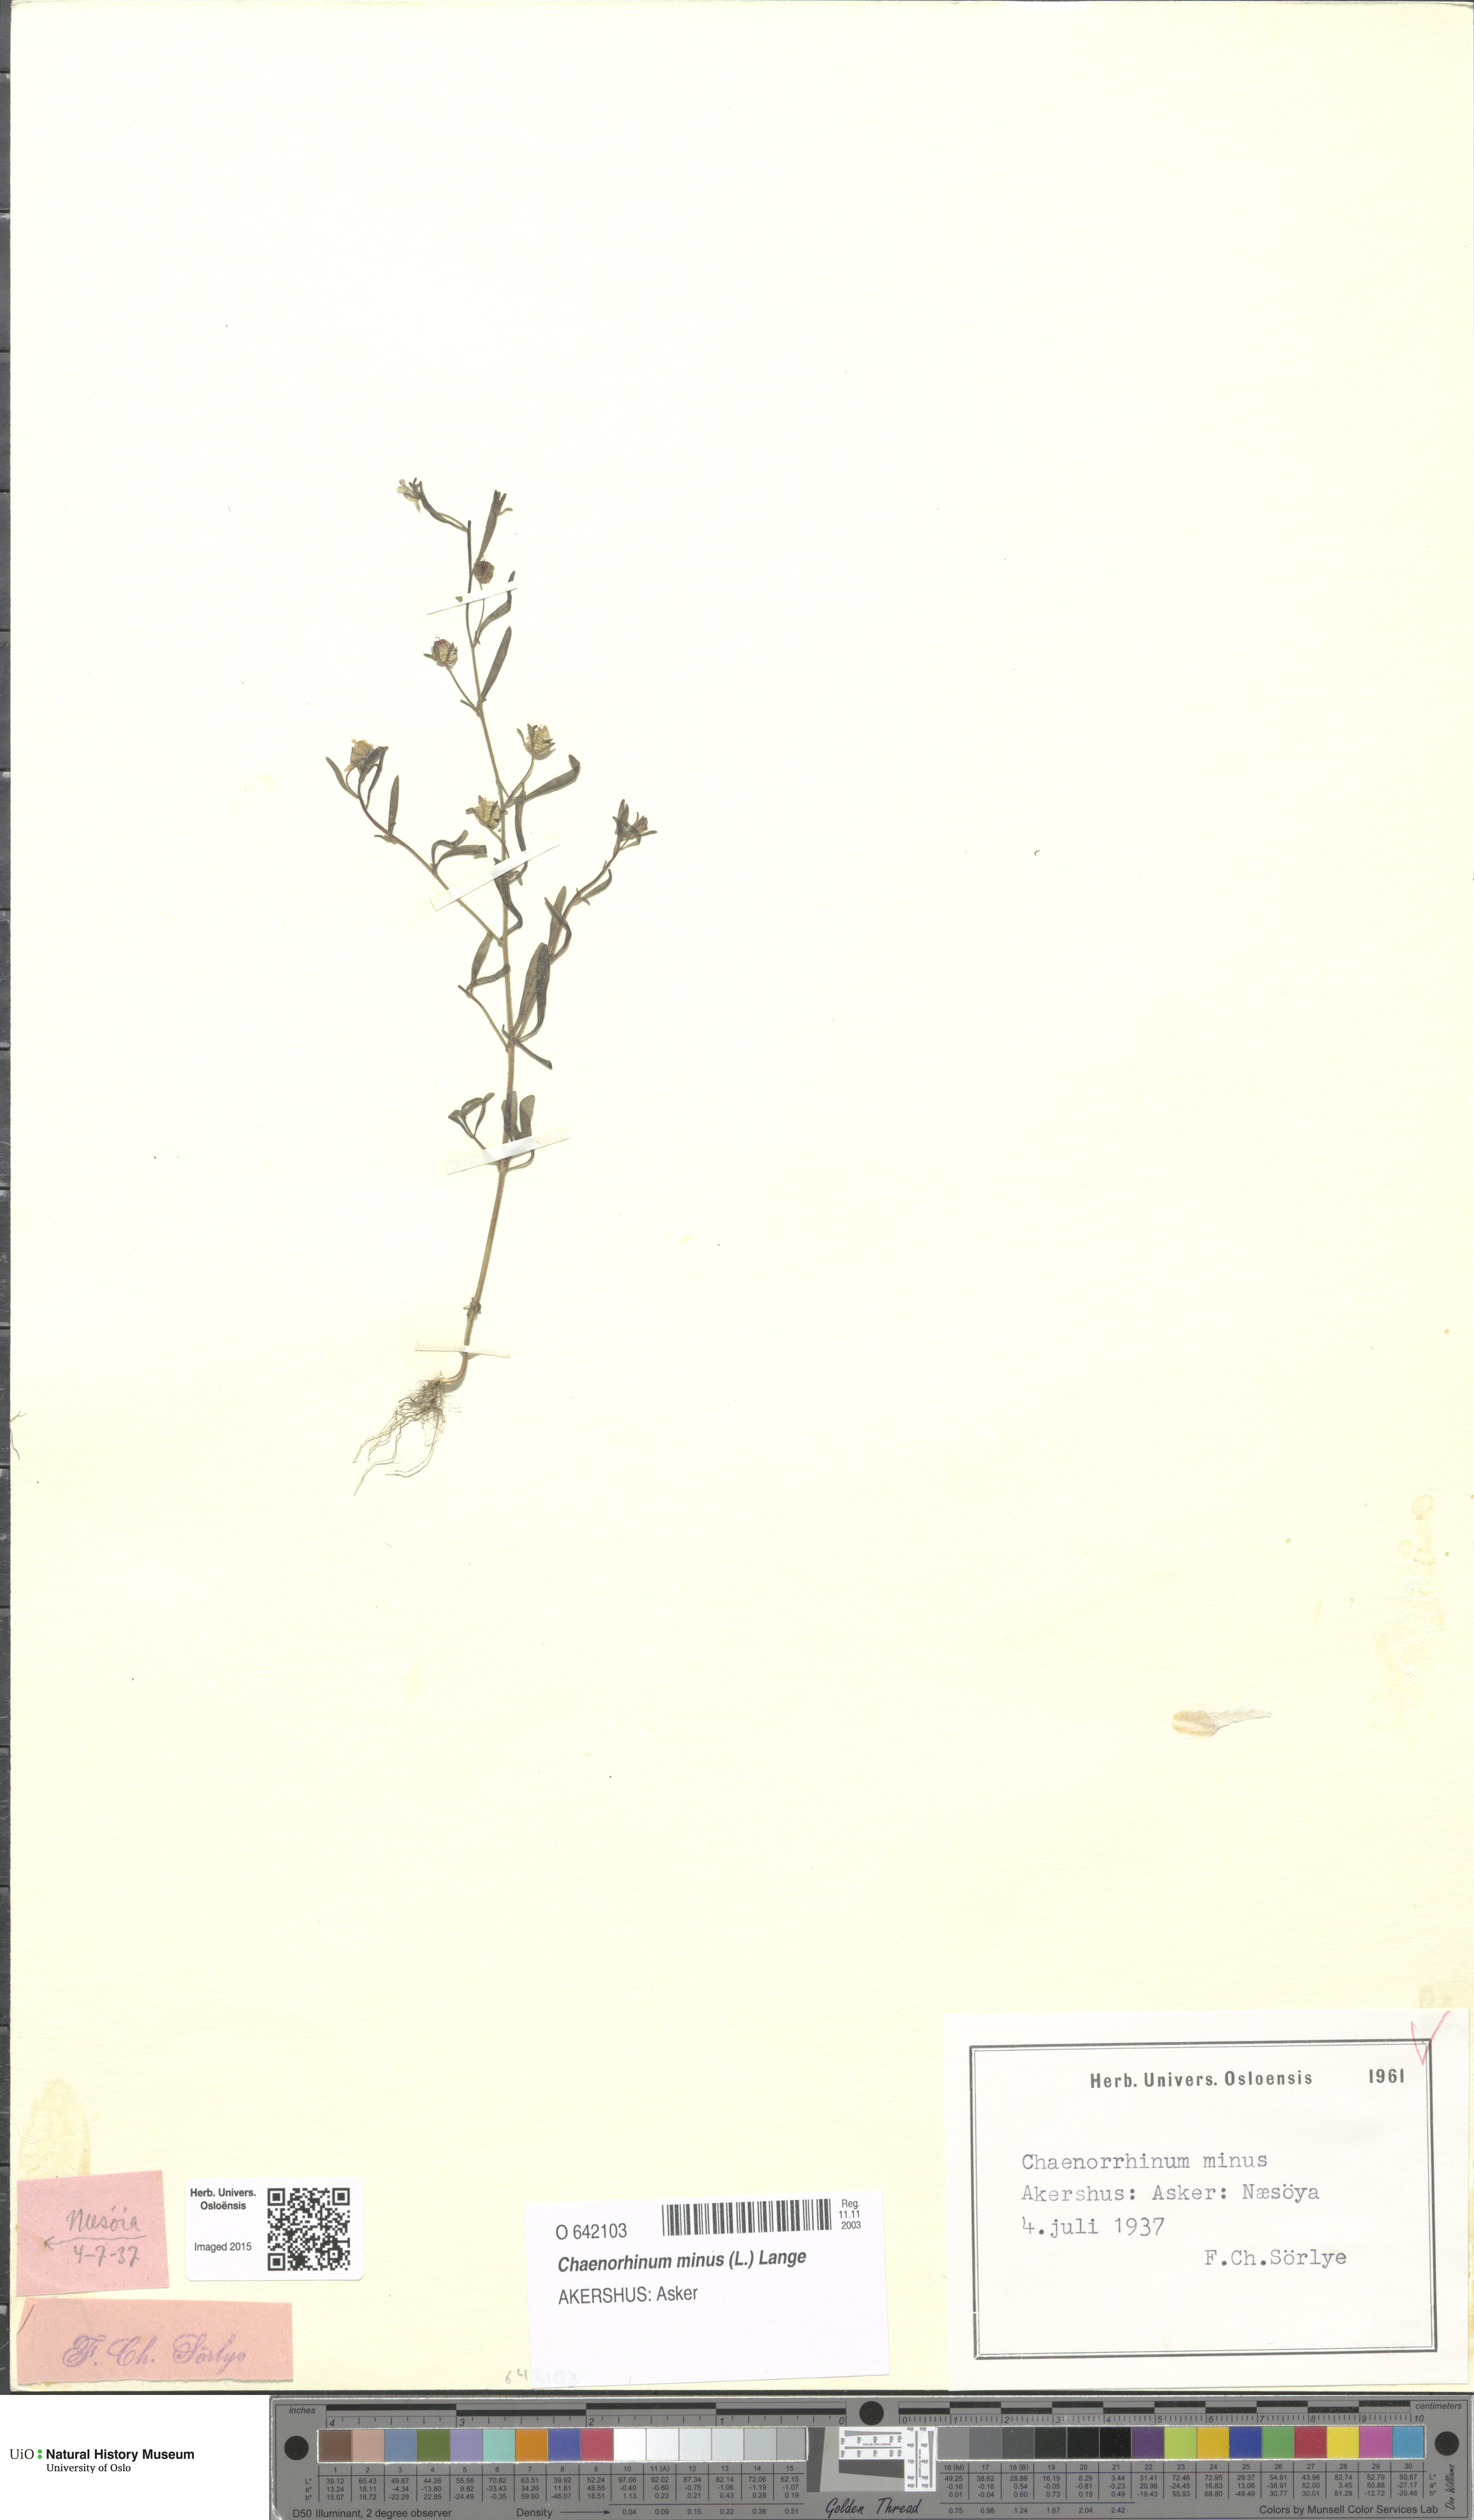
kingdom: Plantae
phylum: Tracheophyta
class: Magnoliopsida
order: Lamiales
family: Plantaginaceae
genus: Chaenorhinum
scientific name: Chaenorhinum minus
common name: Dwarf snapdragon
